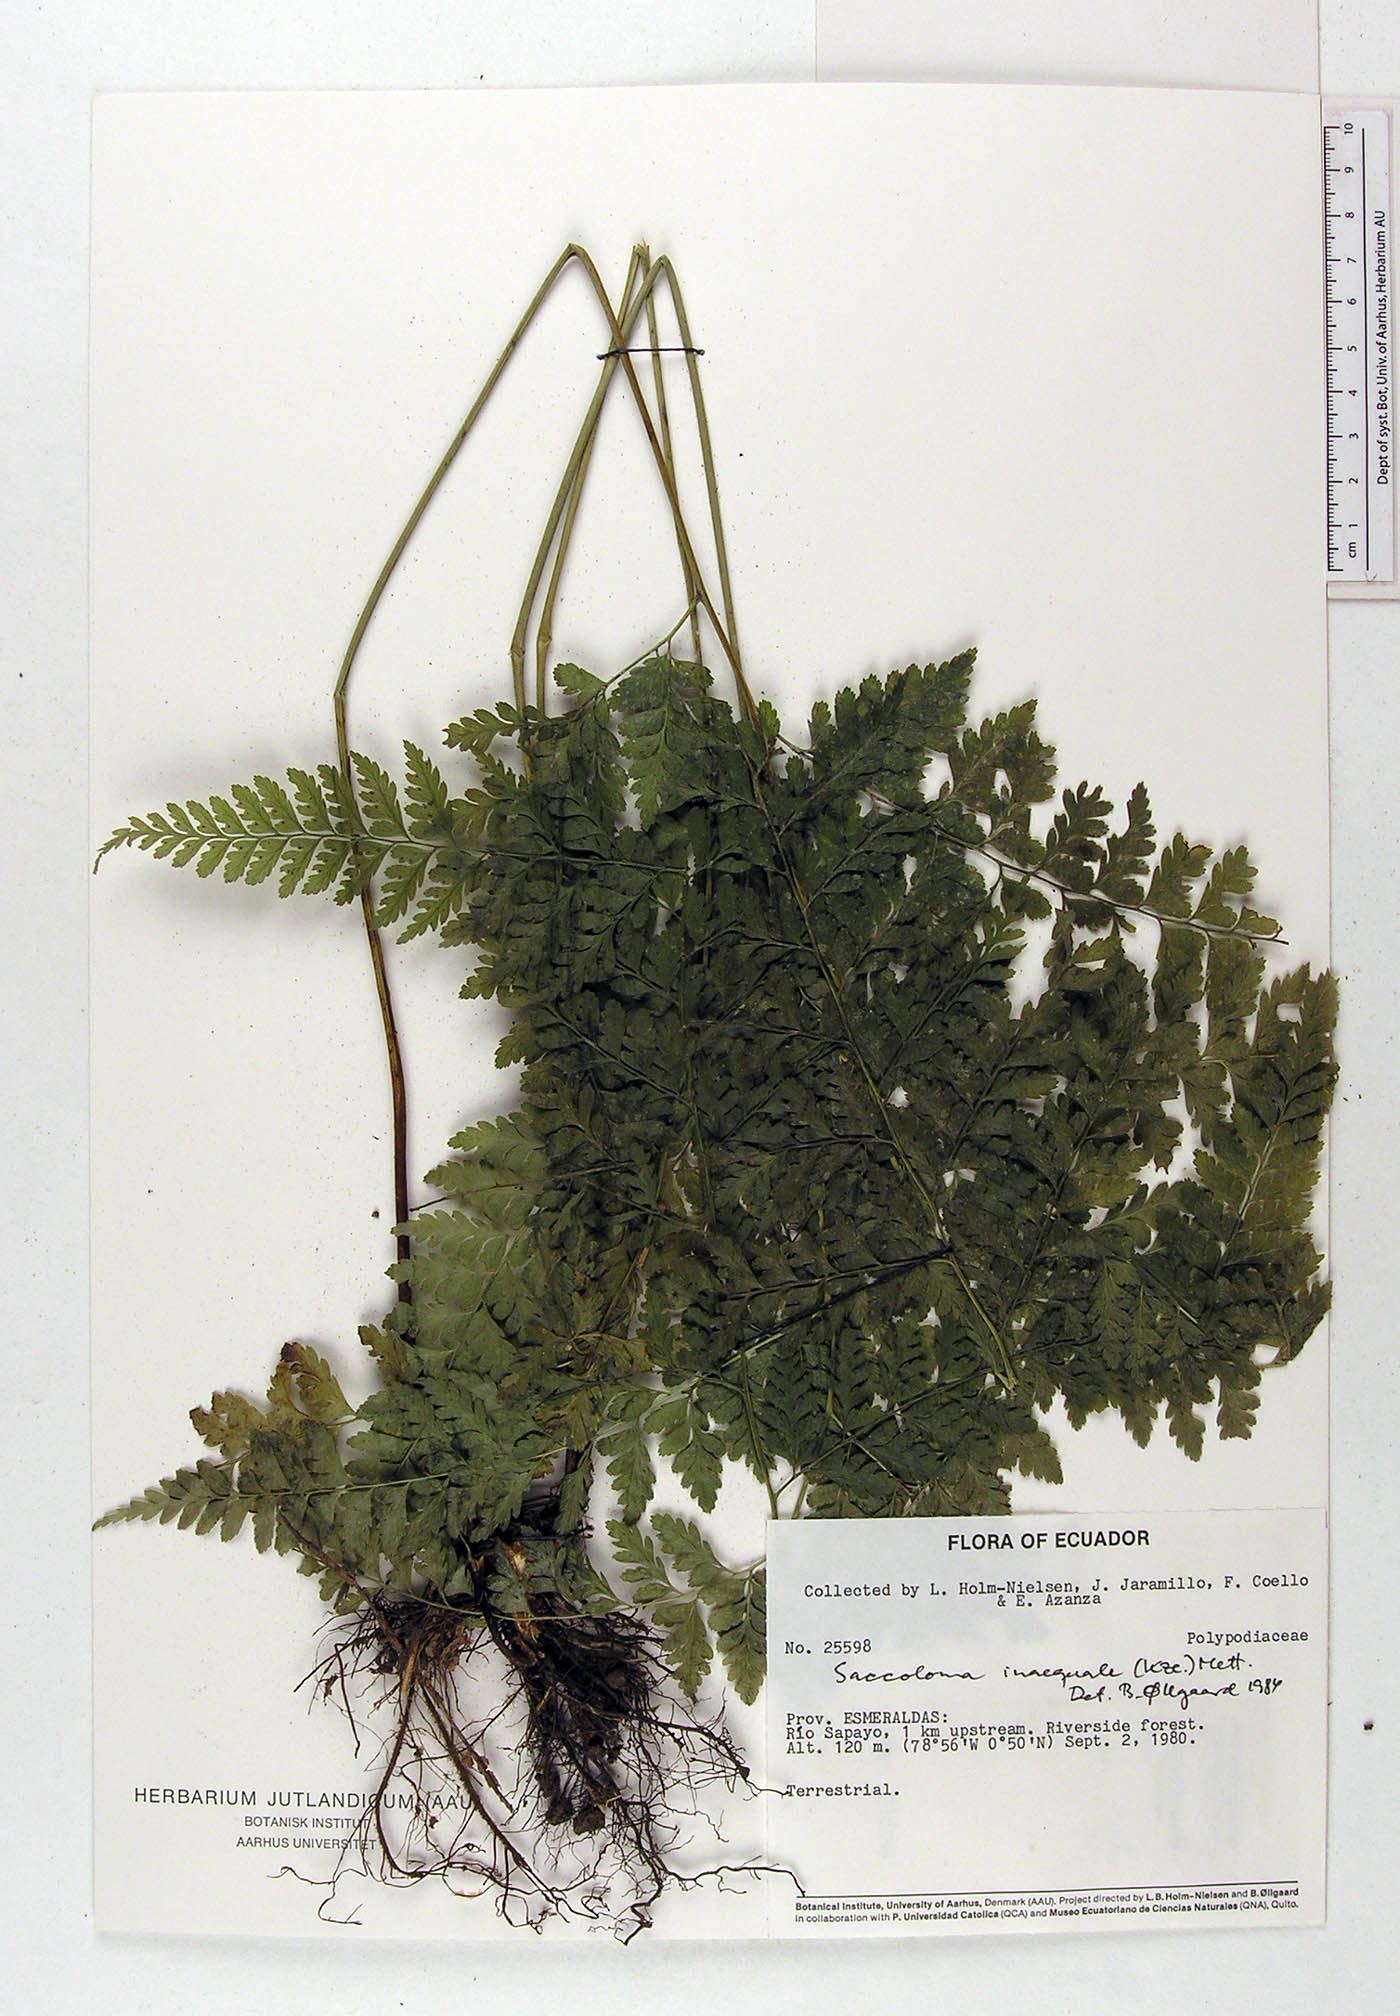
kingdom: Plantae
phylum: Tracheophyta
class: Polypodiopsida
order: Polypodiales
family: Saccolomataceae
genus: Saccoloma
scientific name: Saccoloma inaequale
